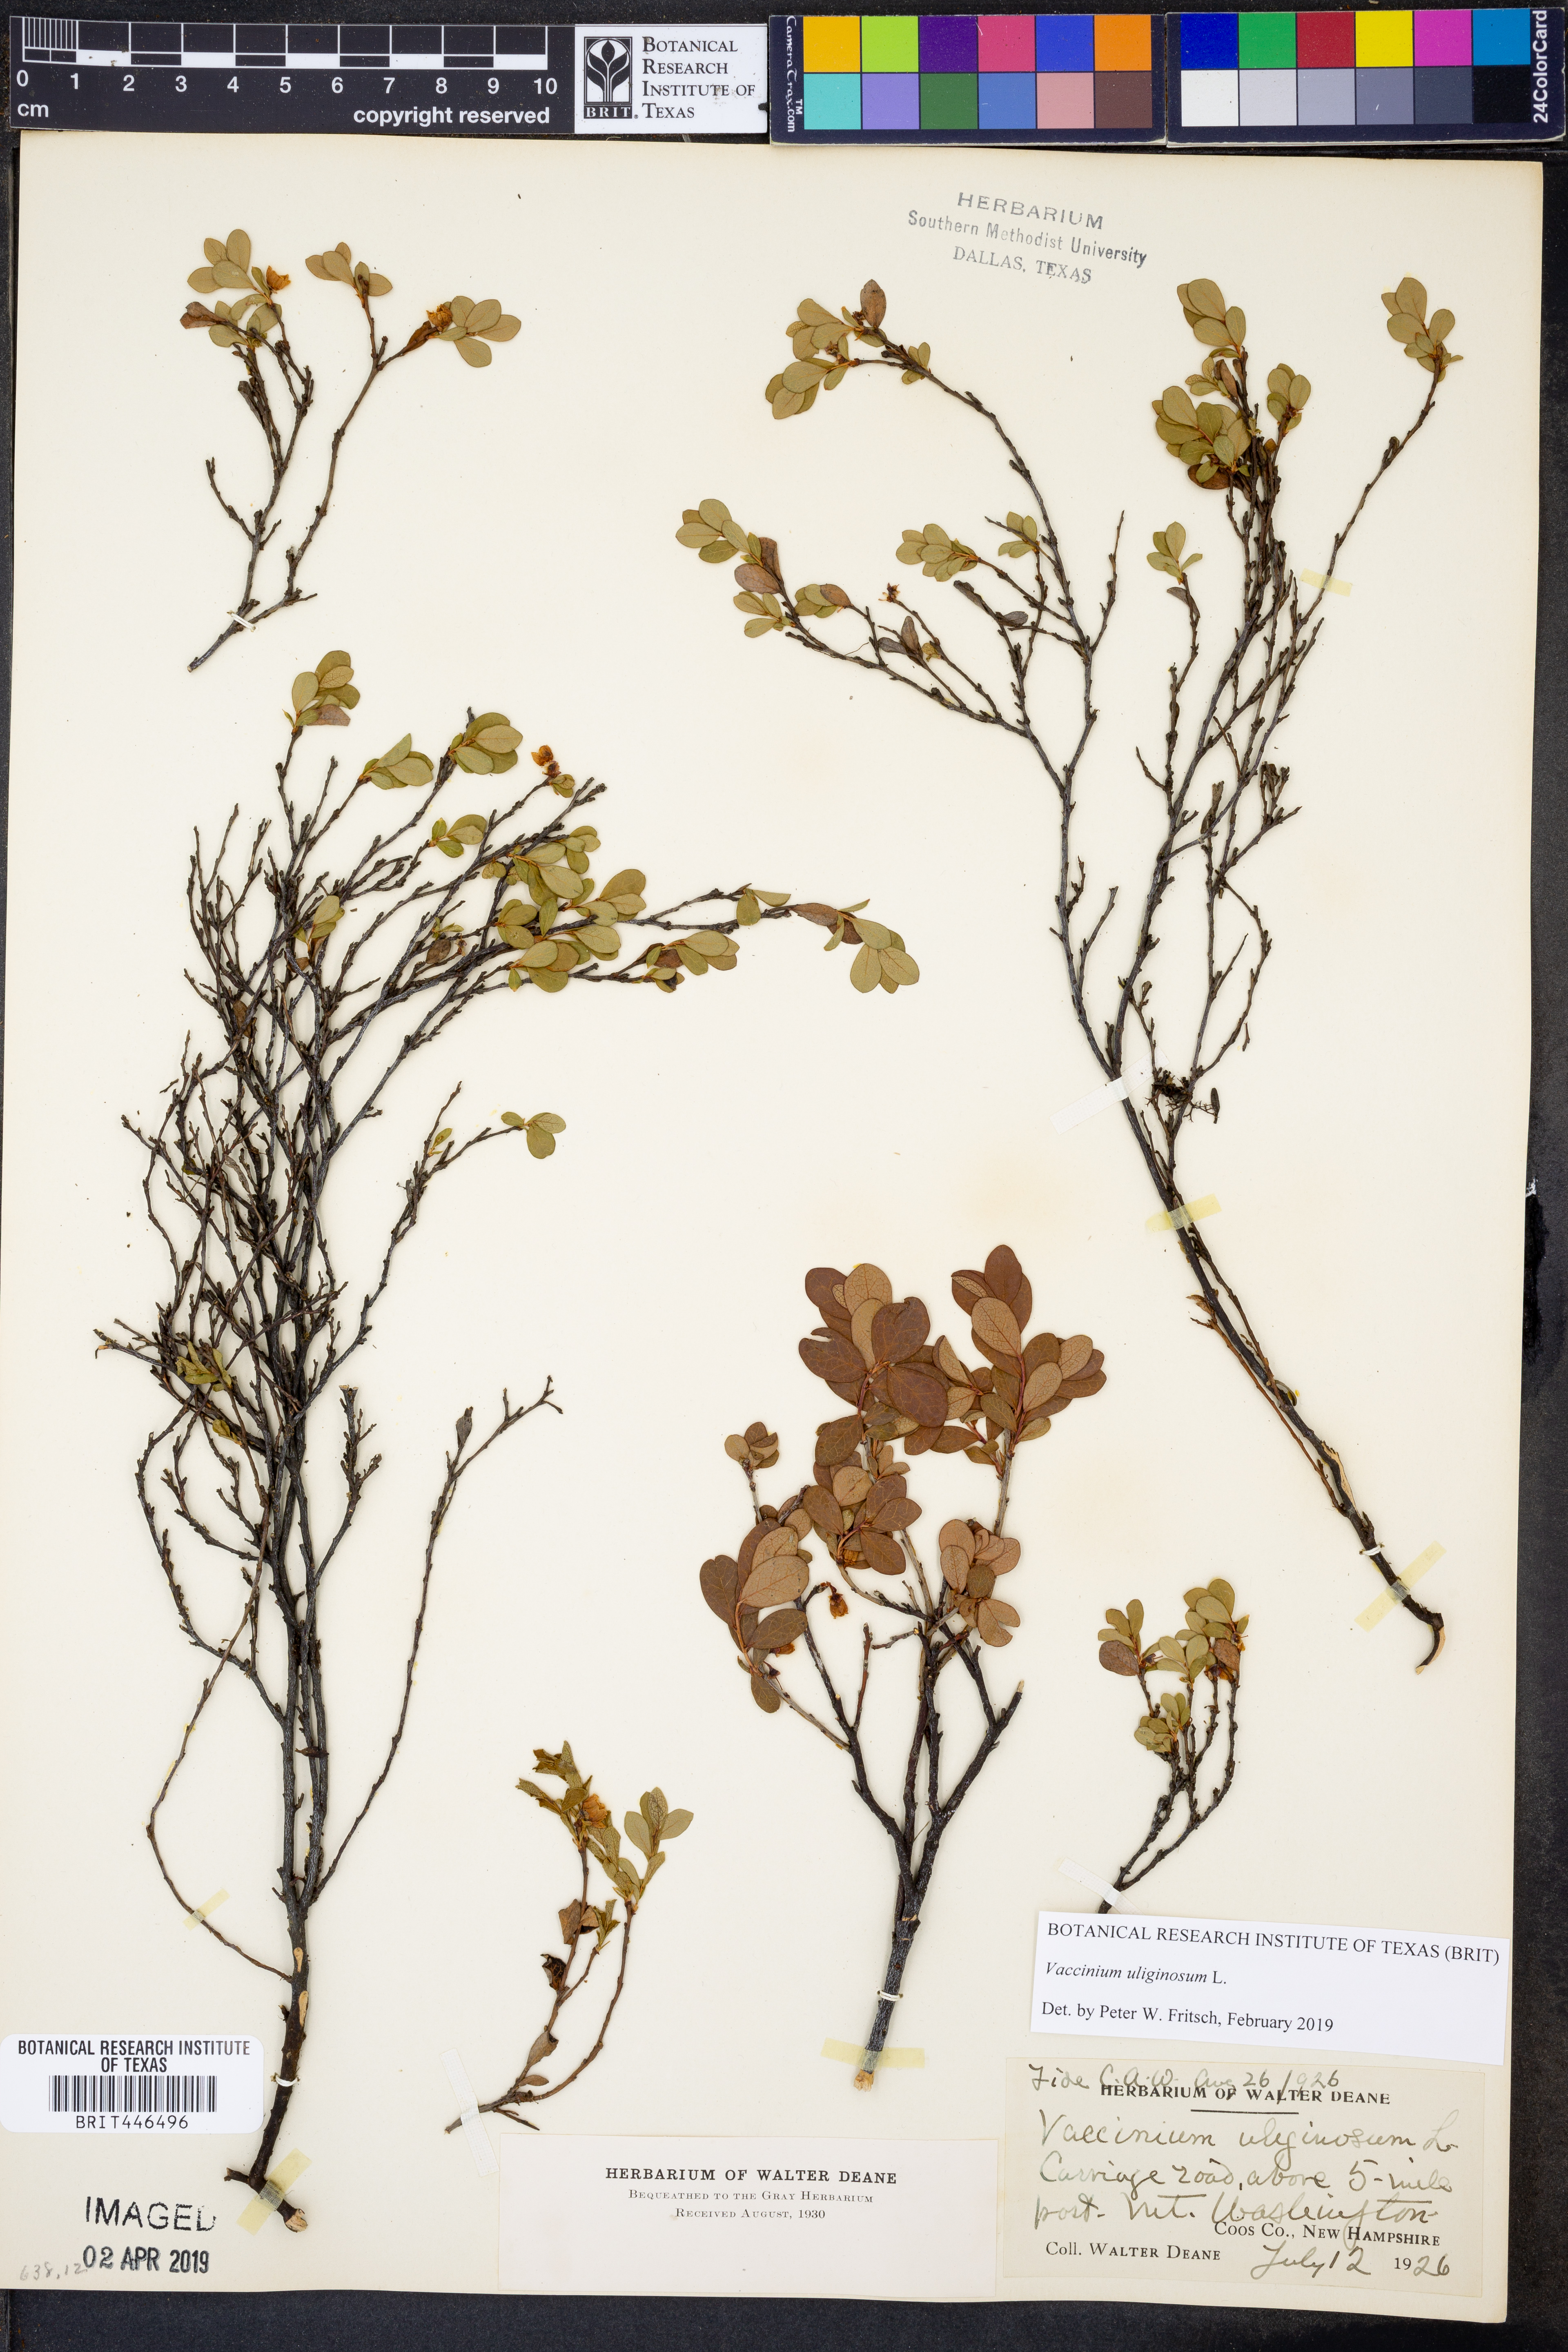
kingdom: Plantae
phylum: Tracheophyta
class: Magnoliopsida
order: Ericales
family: Ericaceae
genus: Vaccinium
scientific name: Vaccinium uliginosum
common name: Bog bilberry
